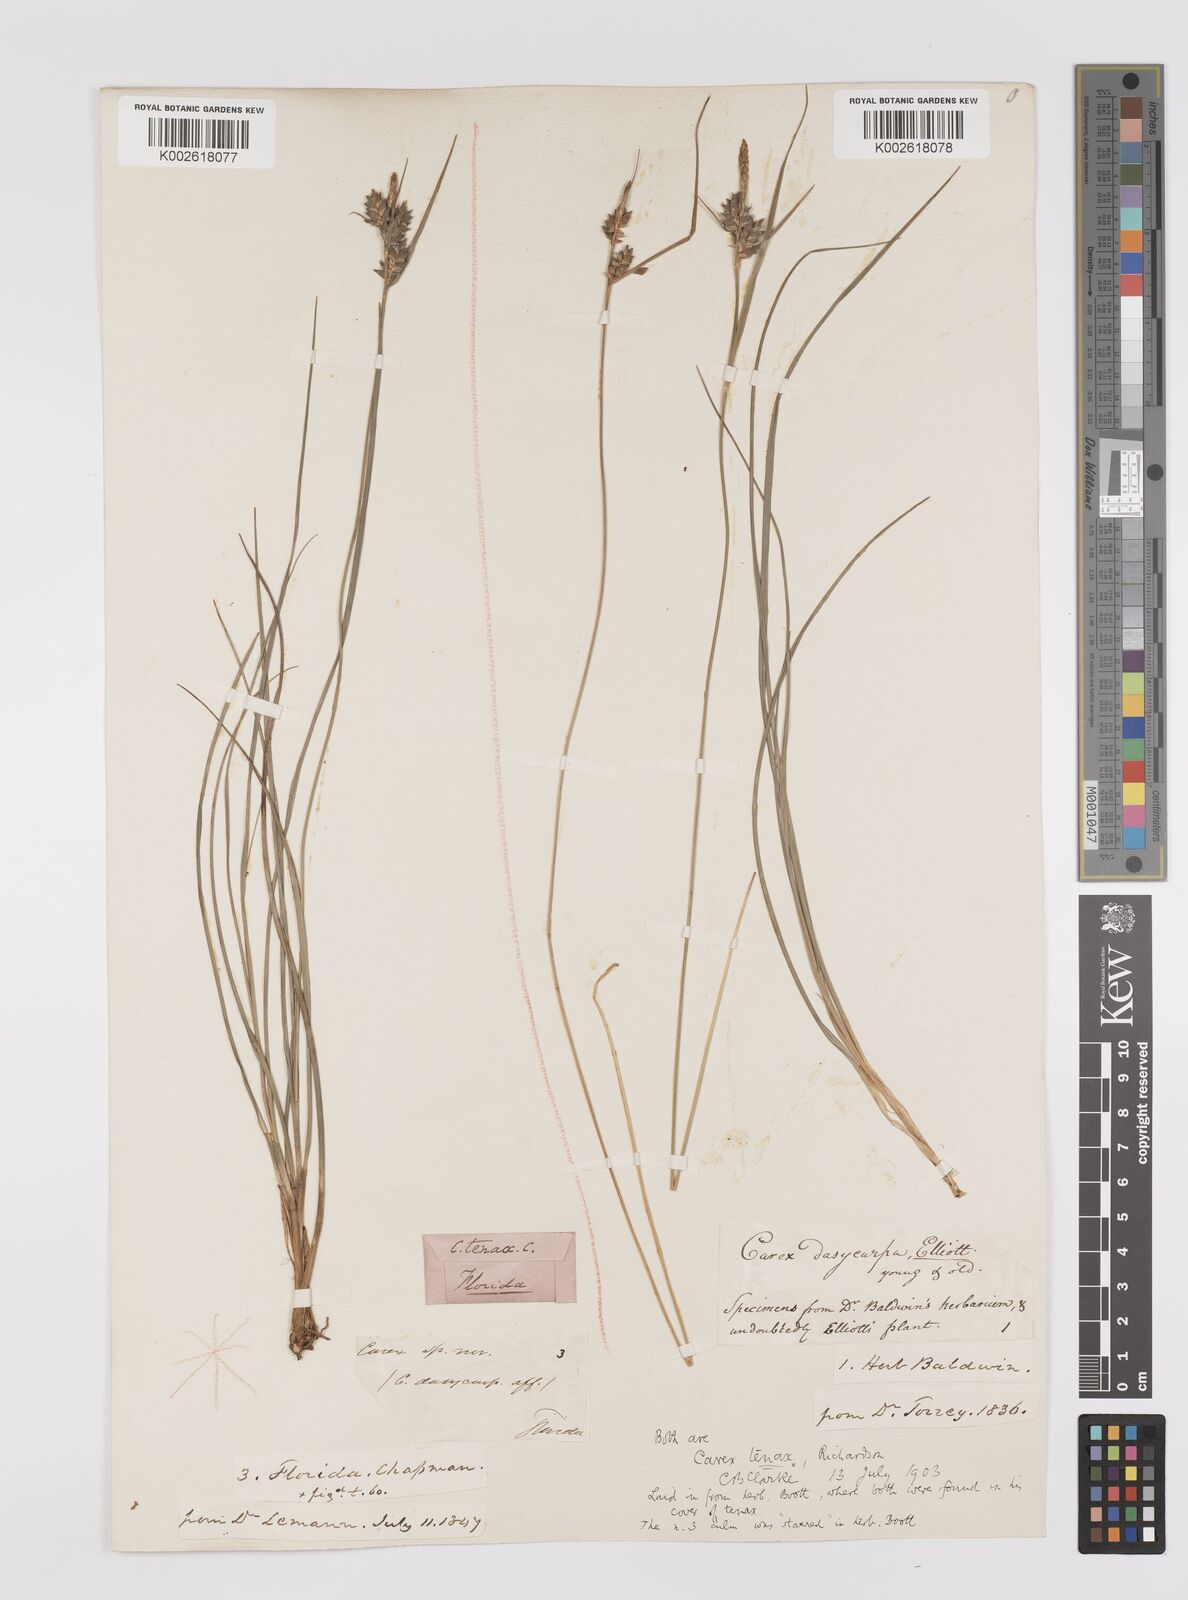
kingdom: Plantae
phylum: Tracheophyta
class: Liliopsida
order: Poales
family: Cyperaceae
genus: Carex
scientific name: Carex tenax
